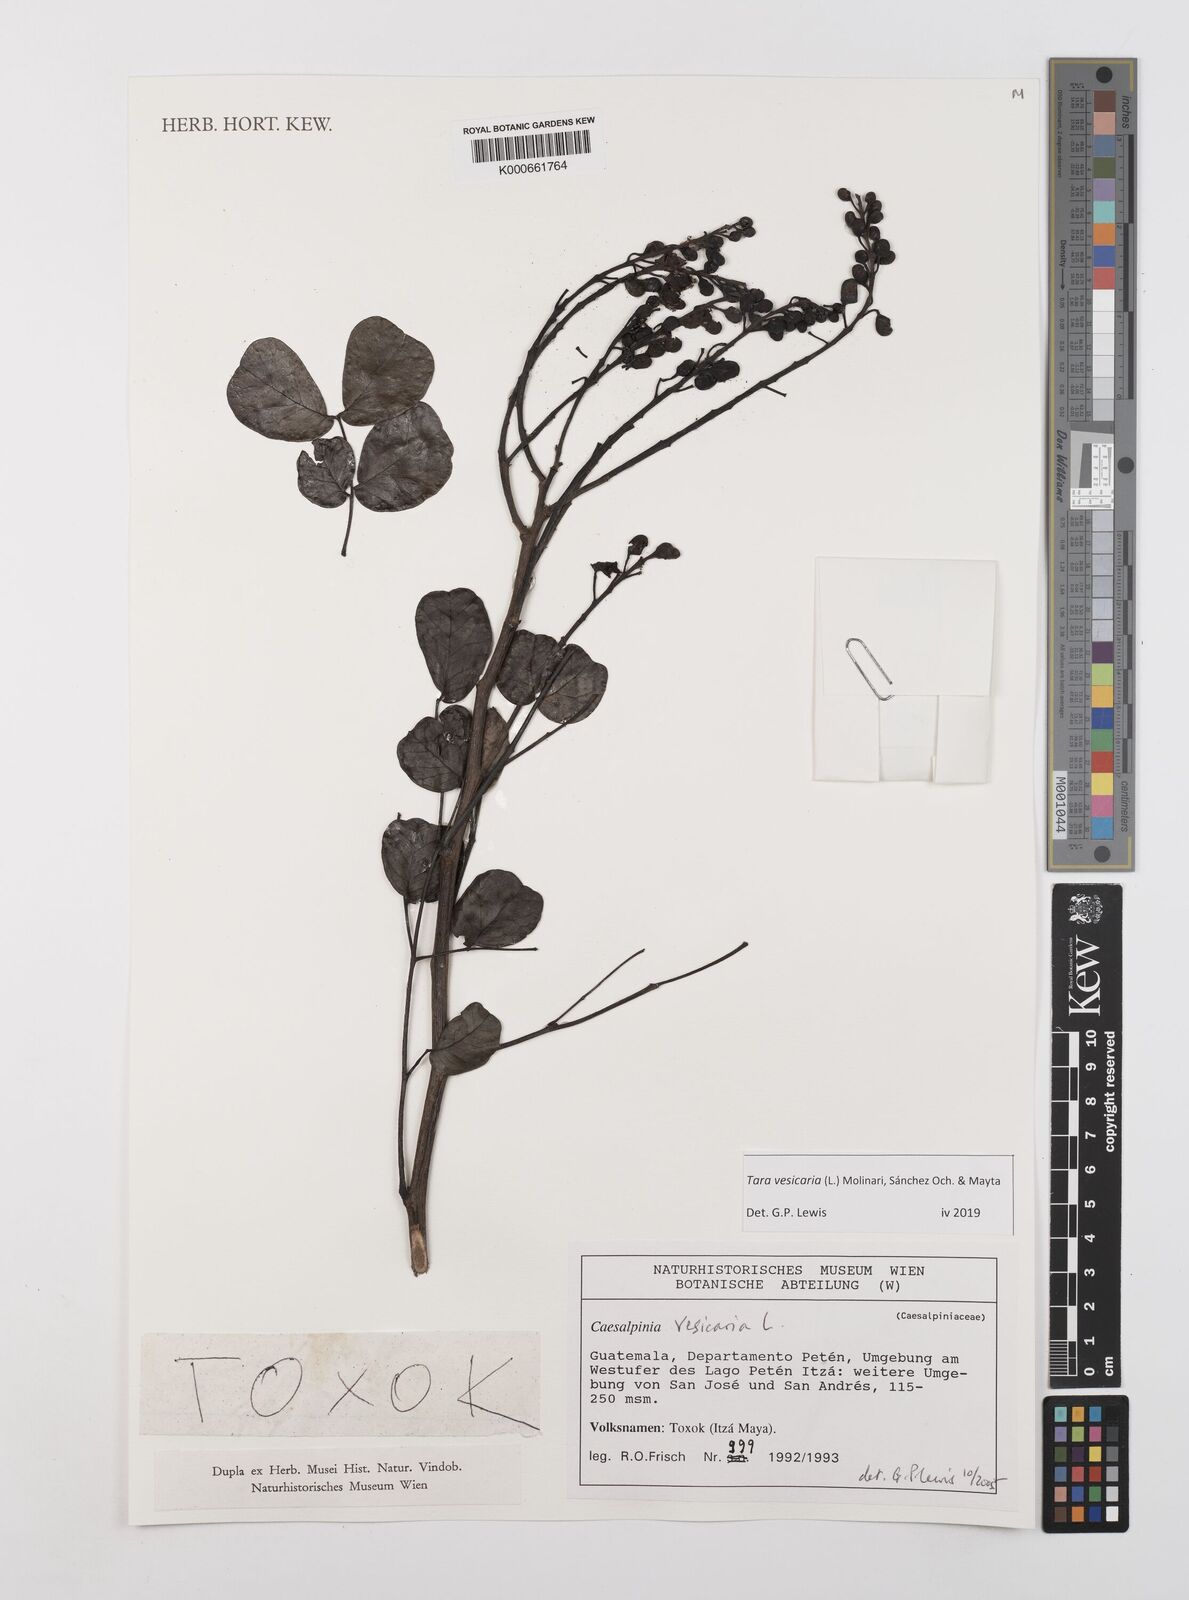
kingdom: Plantae
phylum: Tracheophyta
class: Magnoliopsida
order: Fabales
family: Fabaceae
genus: Tara
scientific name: Tara vesicaria
